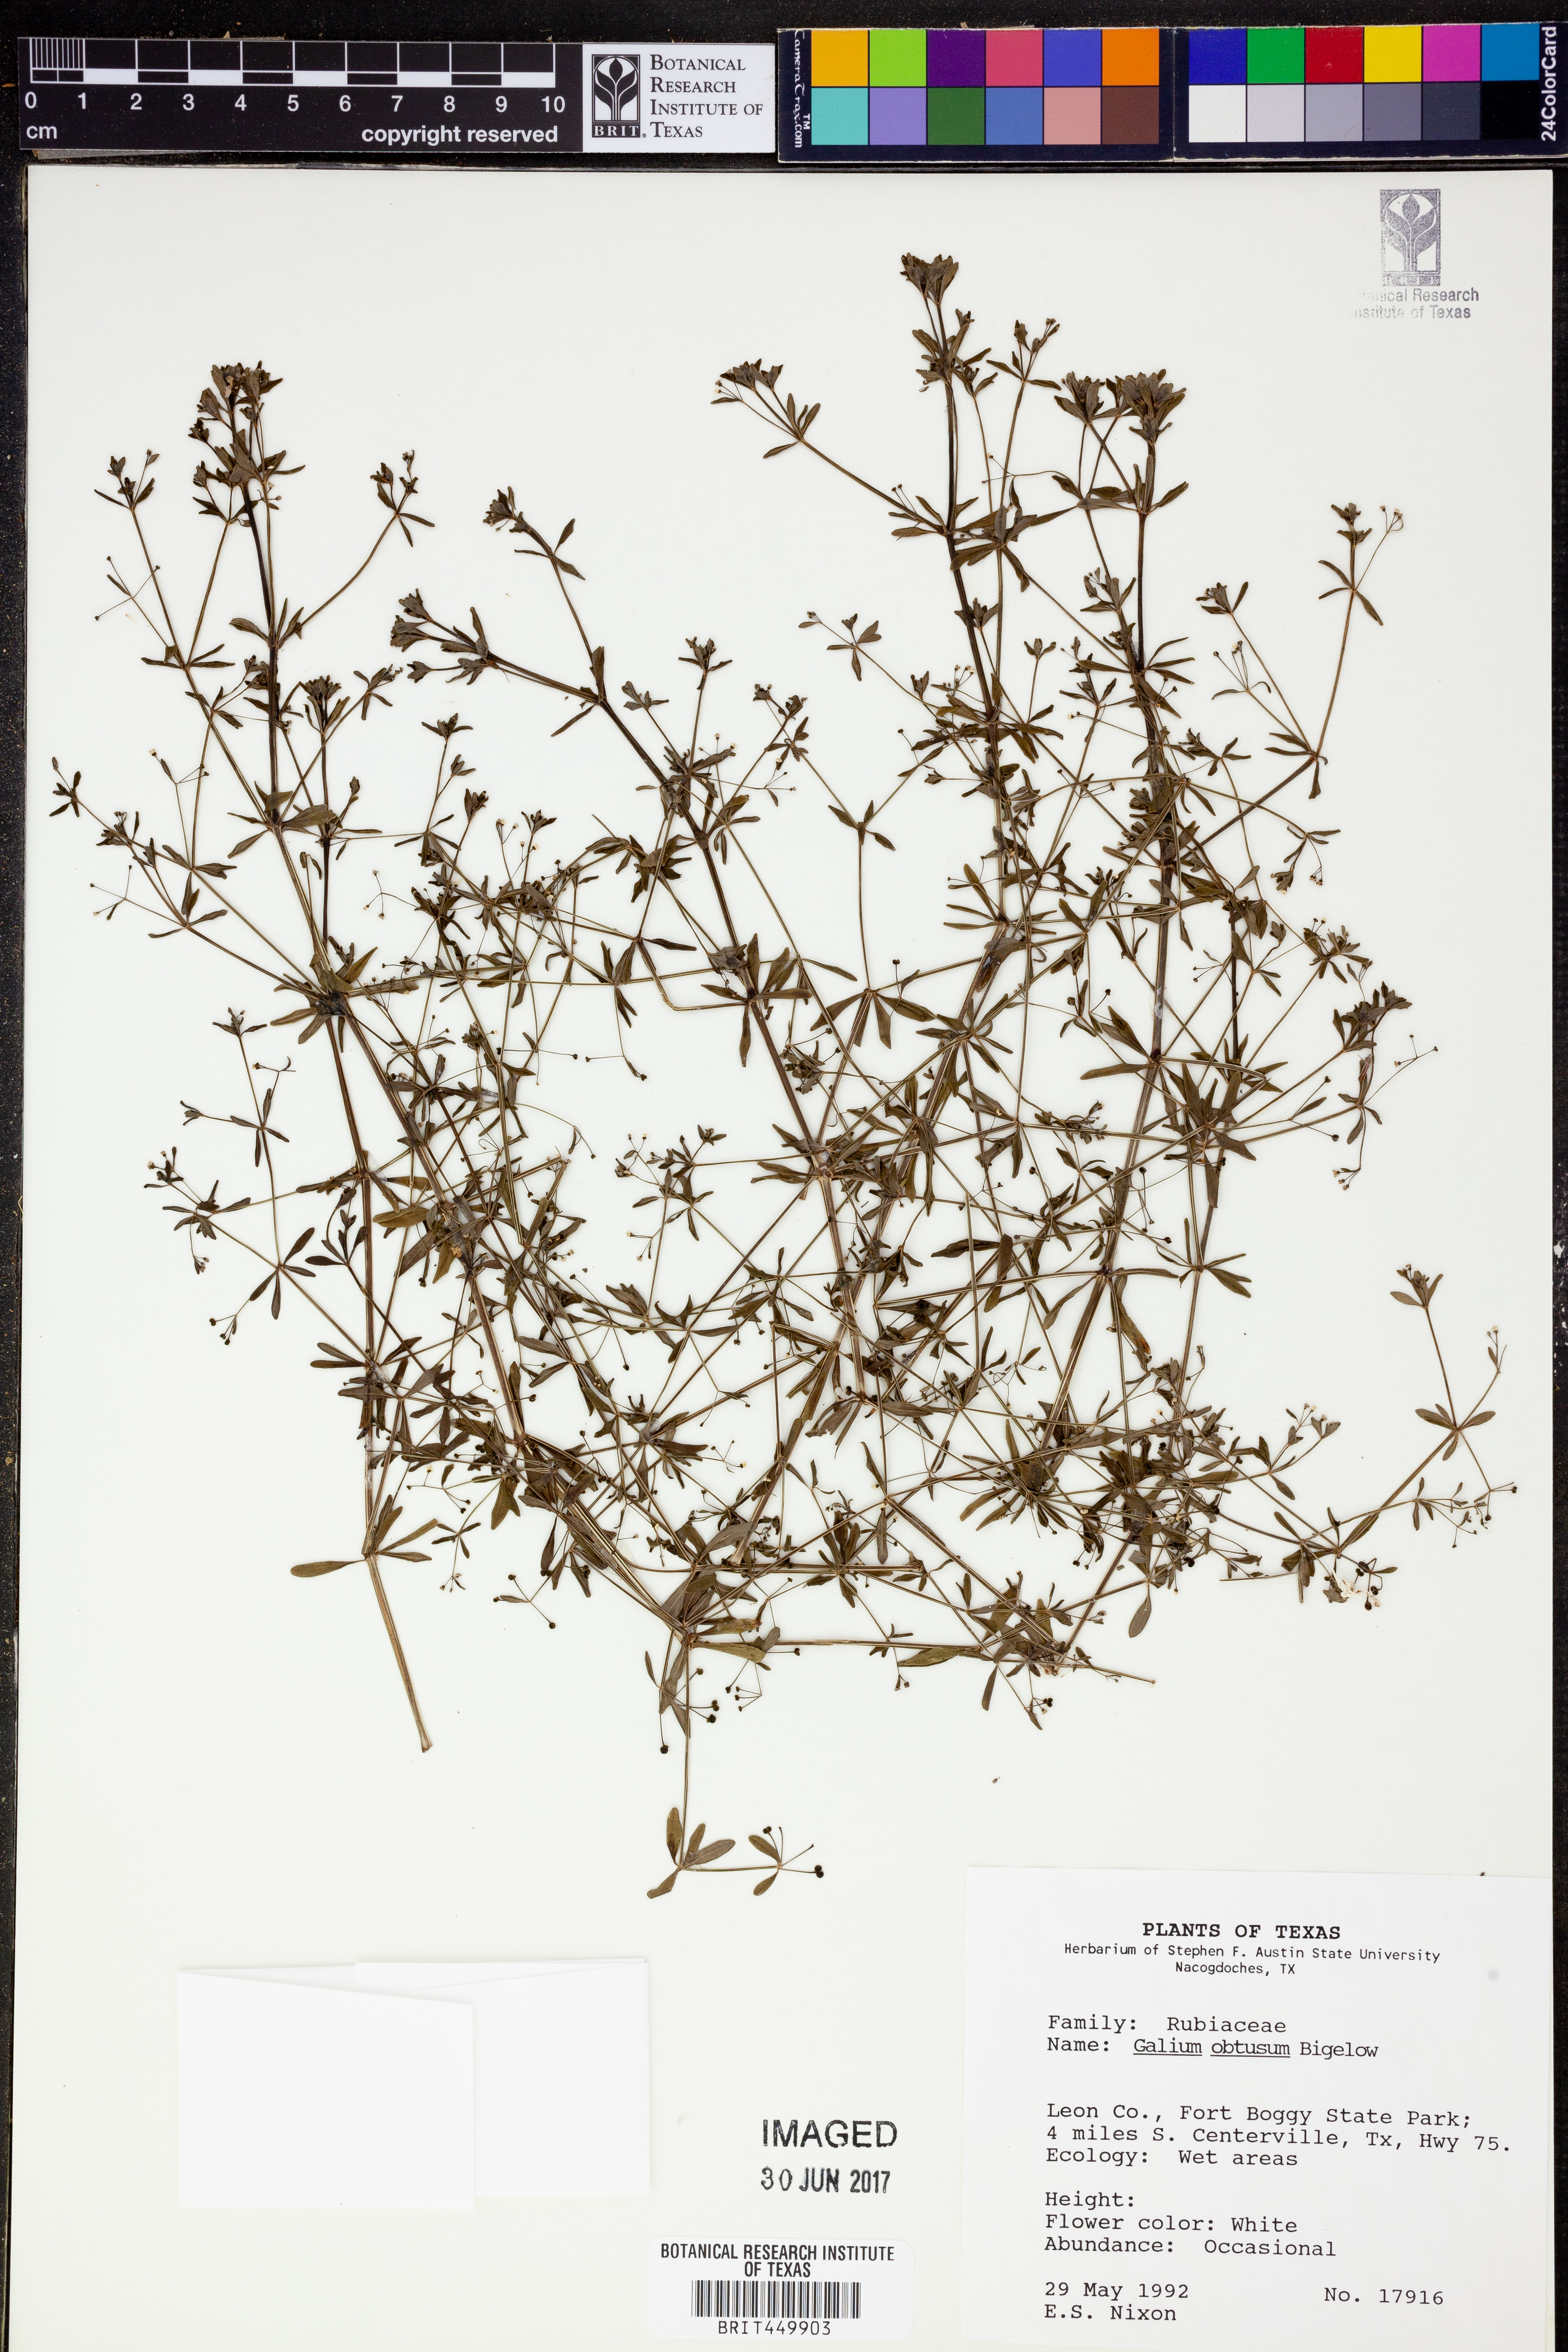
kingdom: Plantae
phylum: Tracheophyta
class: Magnoliopsida
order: Gentianales
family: Rubiaceae
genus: Galium
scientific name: Galium obtusum
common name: Blunt-leaved bedstraw
